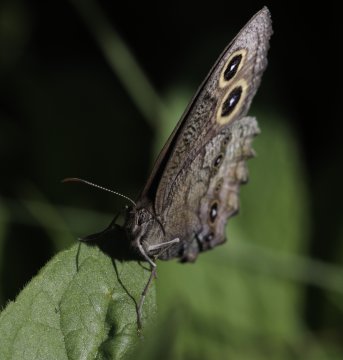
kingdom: Animalia
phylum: Arthropoda
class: Insecta
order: Lepidoptera
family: Nymphalidae
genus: Cercyonis
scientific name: Cercyonis pegala
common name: Common Wood-Nymph
